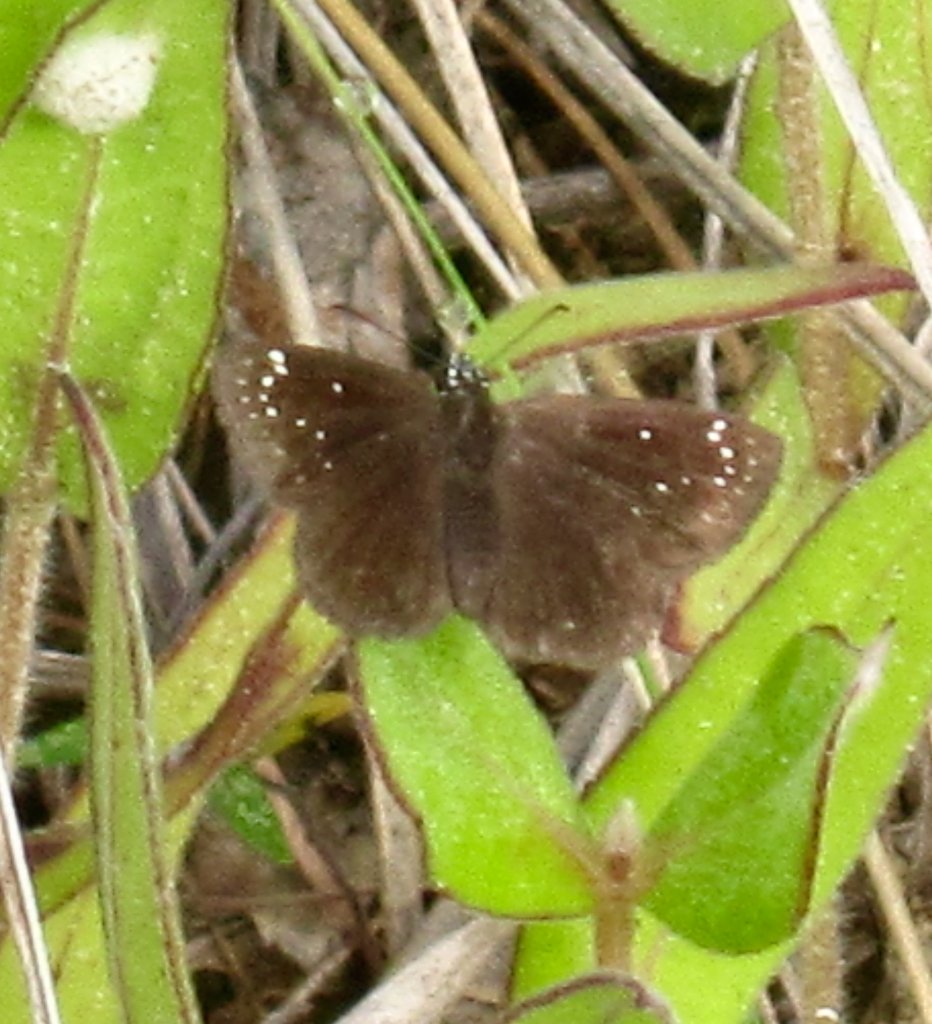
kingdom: Animalia
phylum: Arthropoda
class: Insecta
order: Lepidoptera
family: Hesperiidae
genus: Pholisora
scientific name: Pholisora catullus
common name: Common Sootywing
